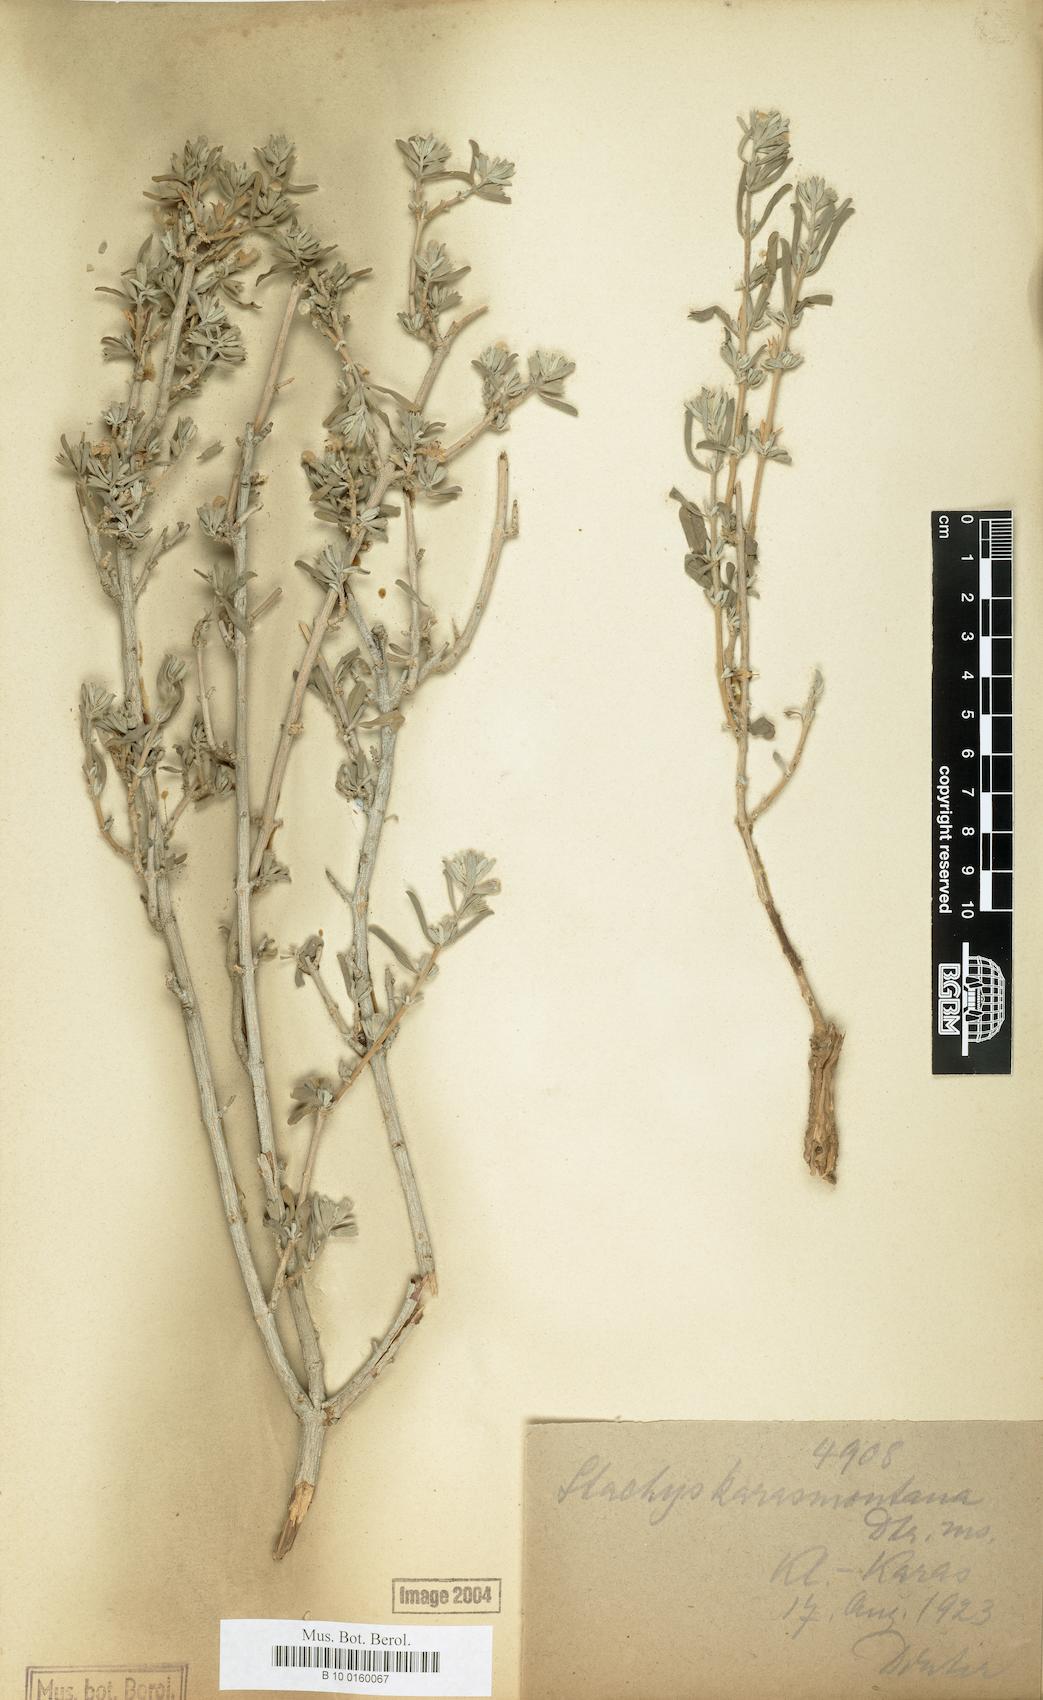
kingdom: Plantae
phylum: Tracheophyta
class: Magnoliopsida
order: Lamiales
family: Lamiaceae
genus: Stachys
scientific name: Stachys spathulata
